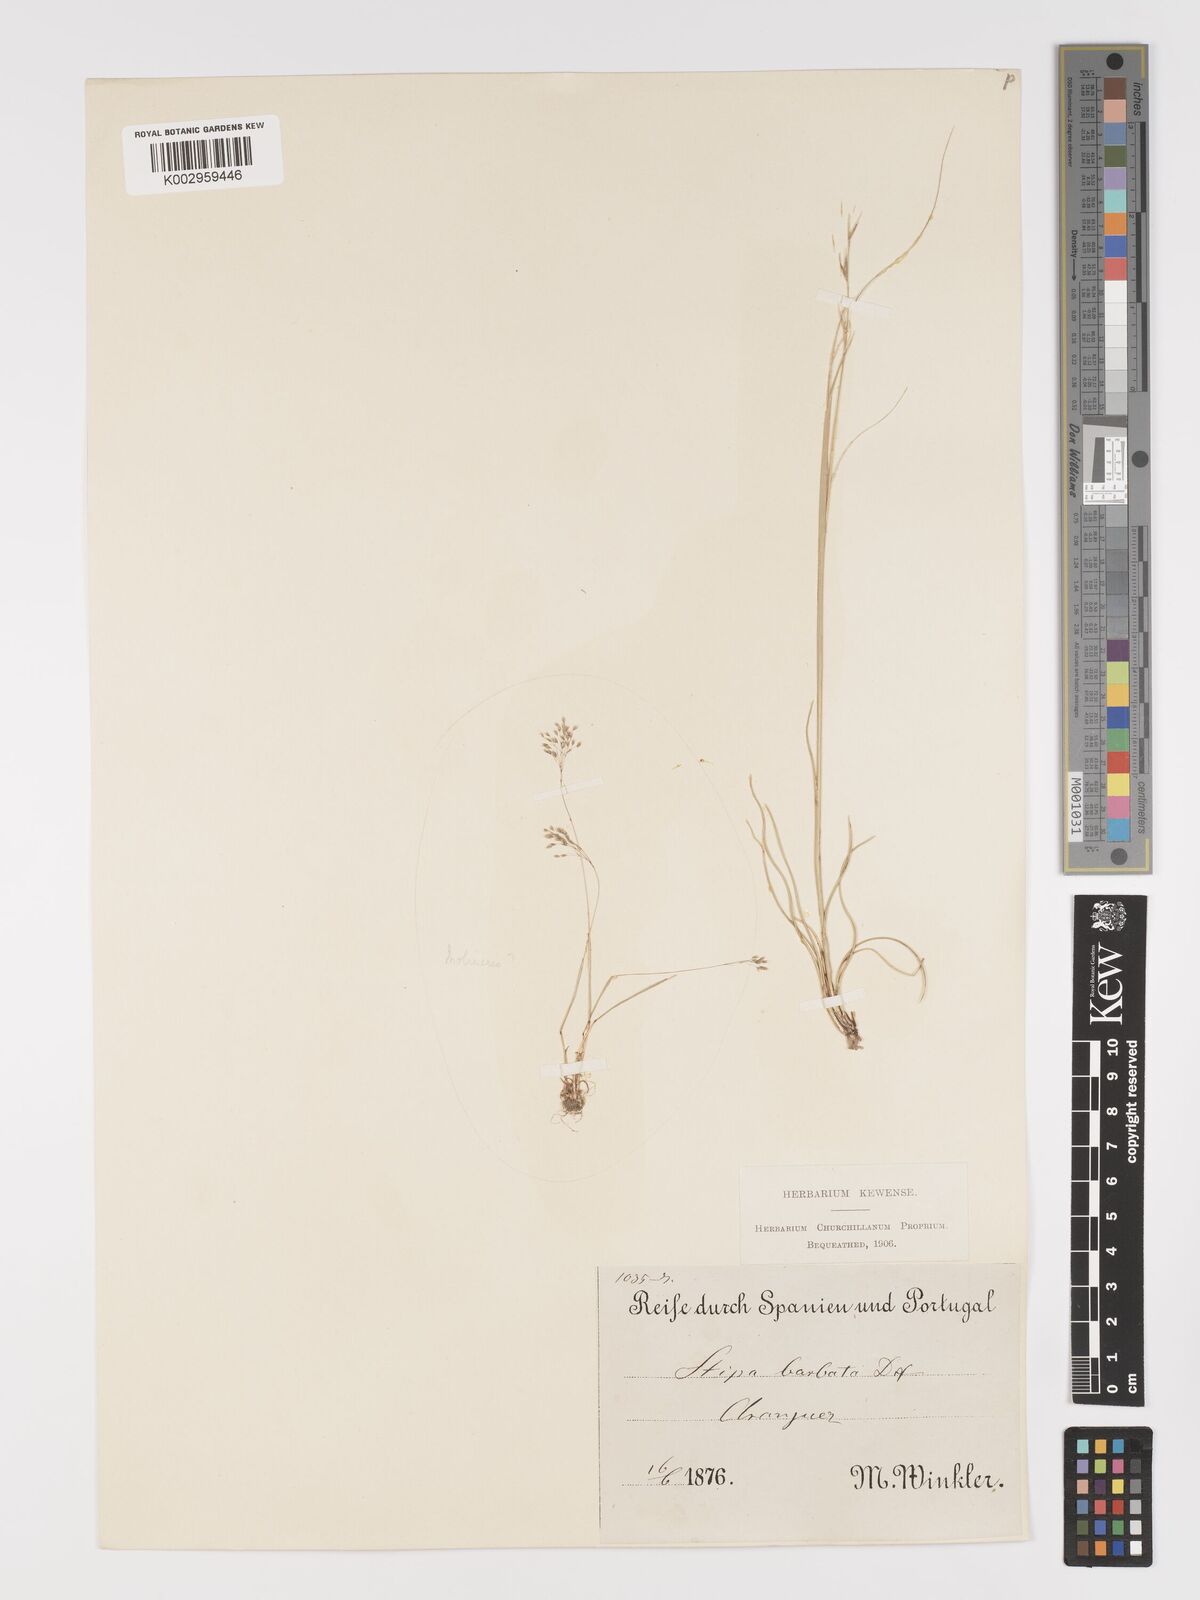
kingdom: Plantae
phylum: Tracheophyta
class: Liliopsida
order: Poales
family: Poaceae
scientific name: Poaceae
